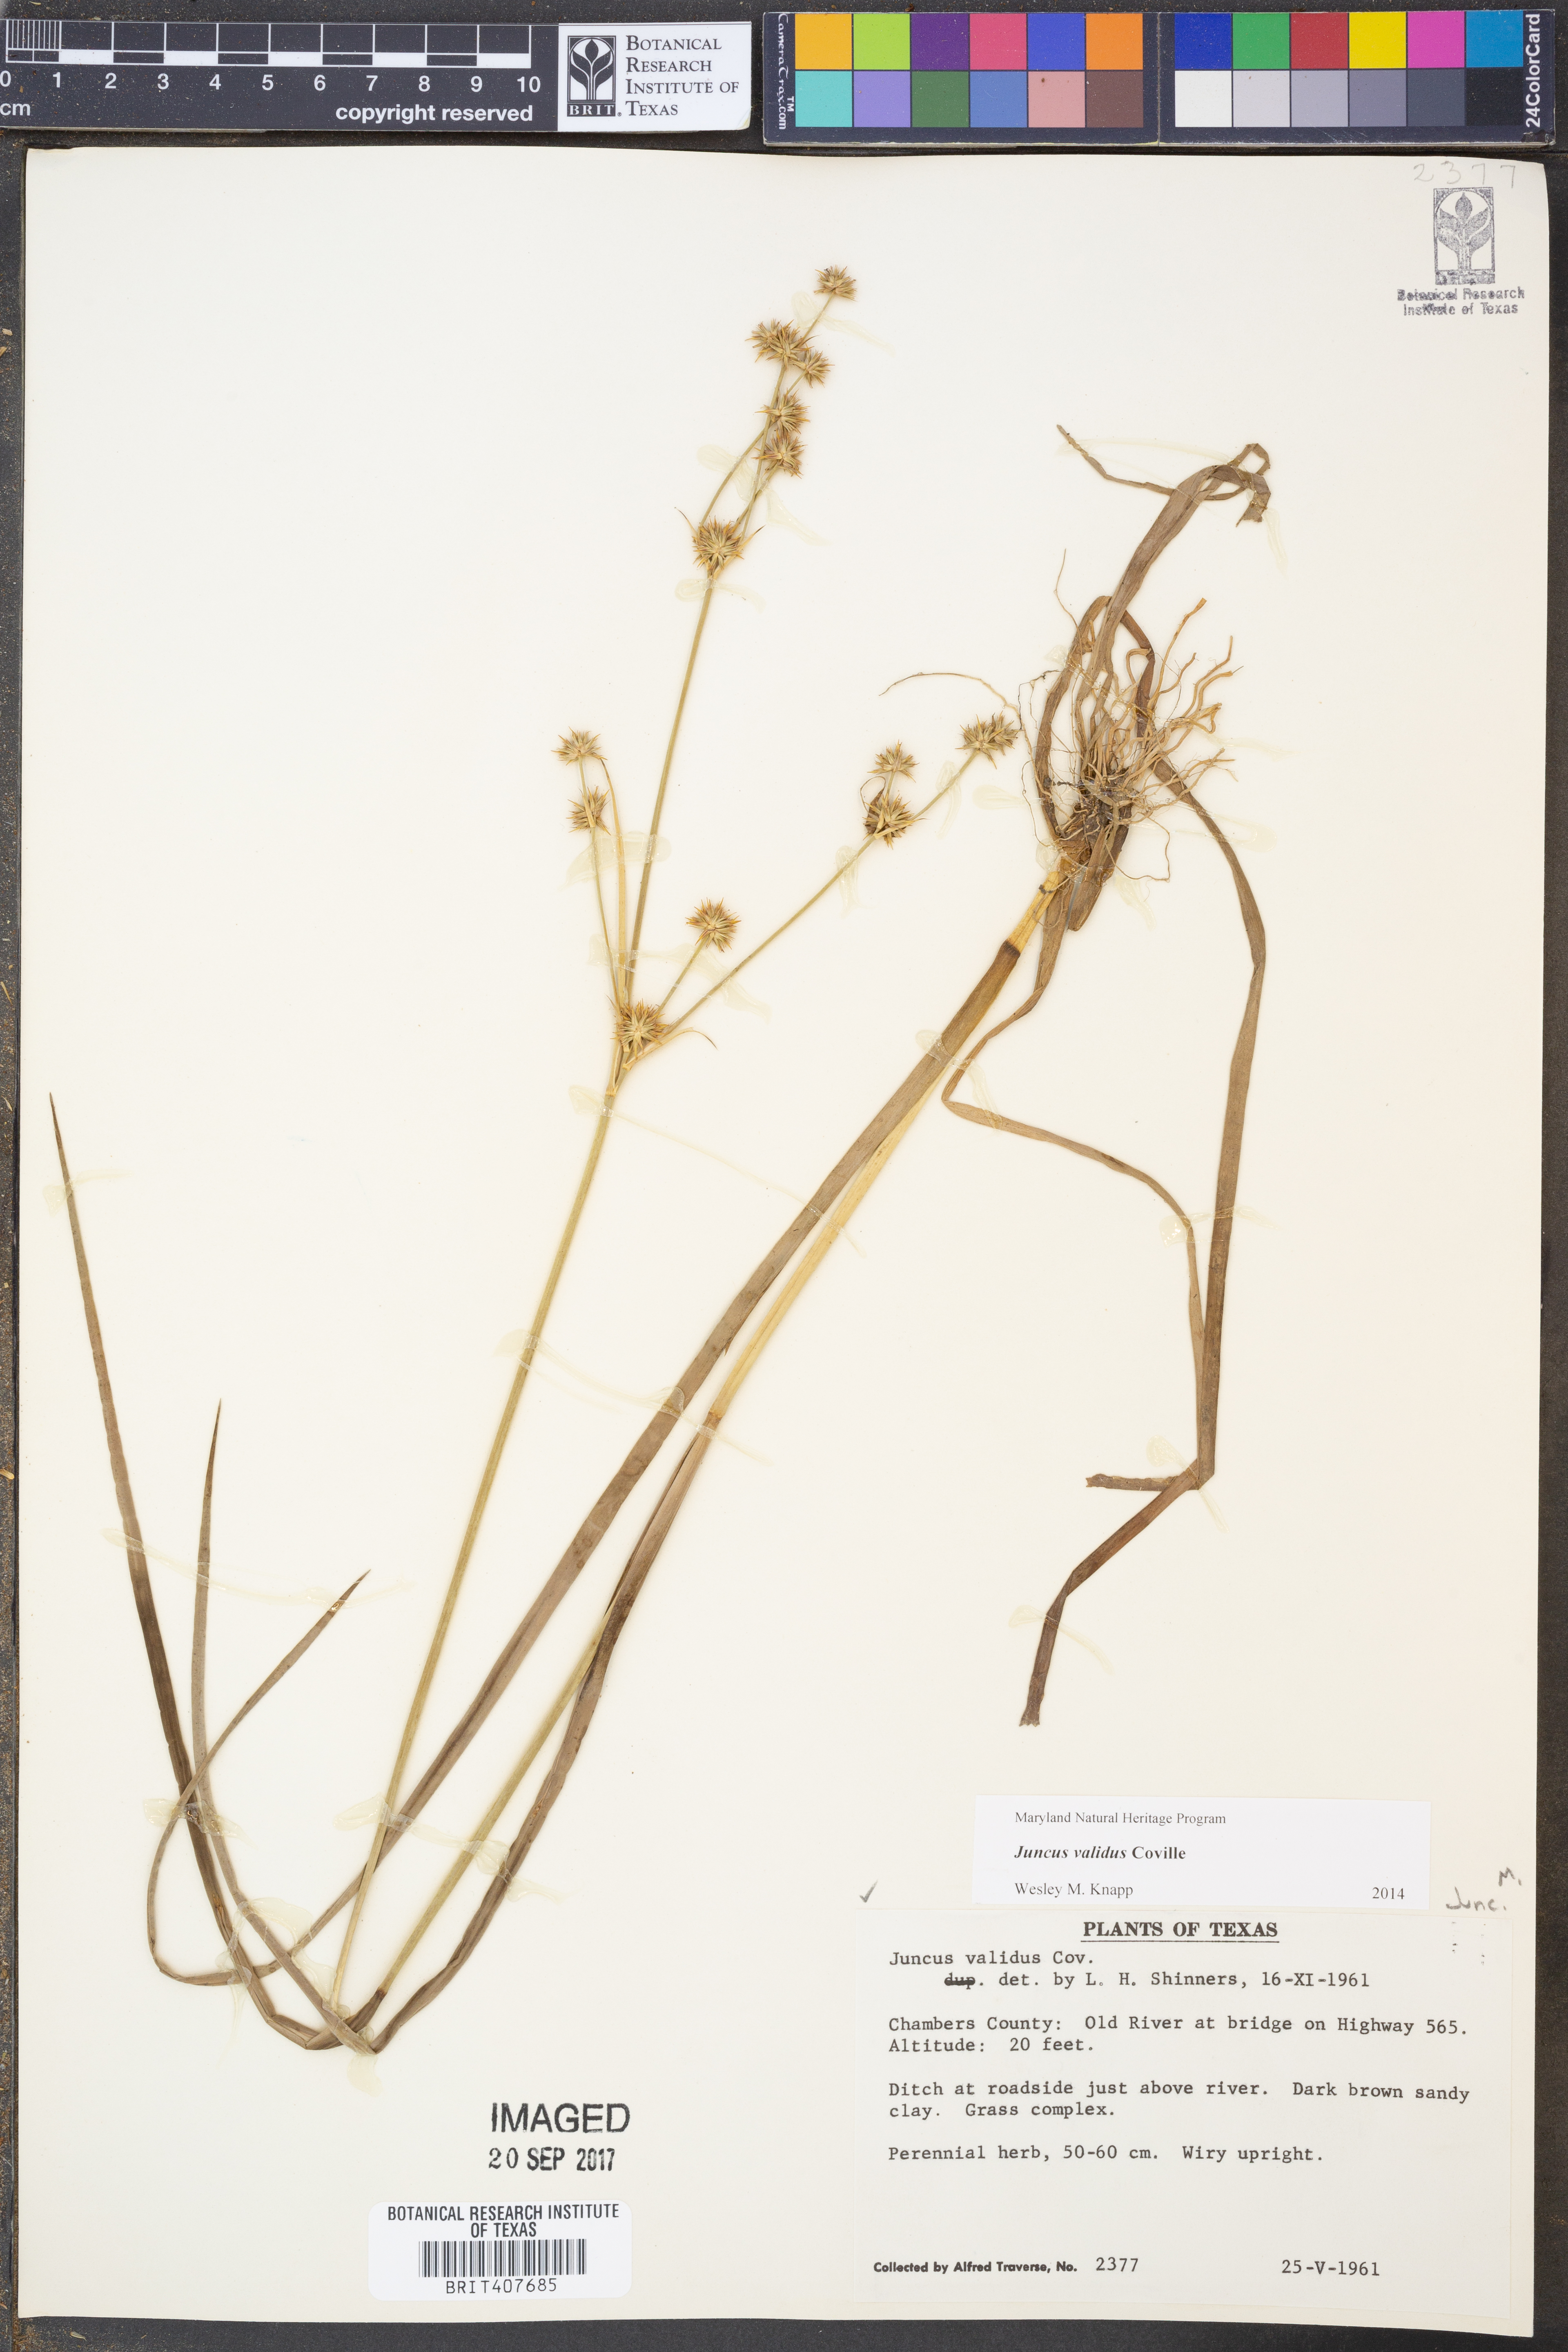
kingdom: Plantae
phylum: Tracheophyta
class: Liliopsida
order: Poales
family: Juncaceae
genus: Juncus
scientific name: Juncus validus
